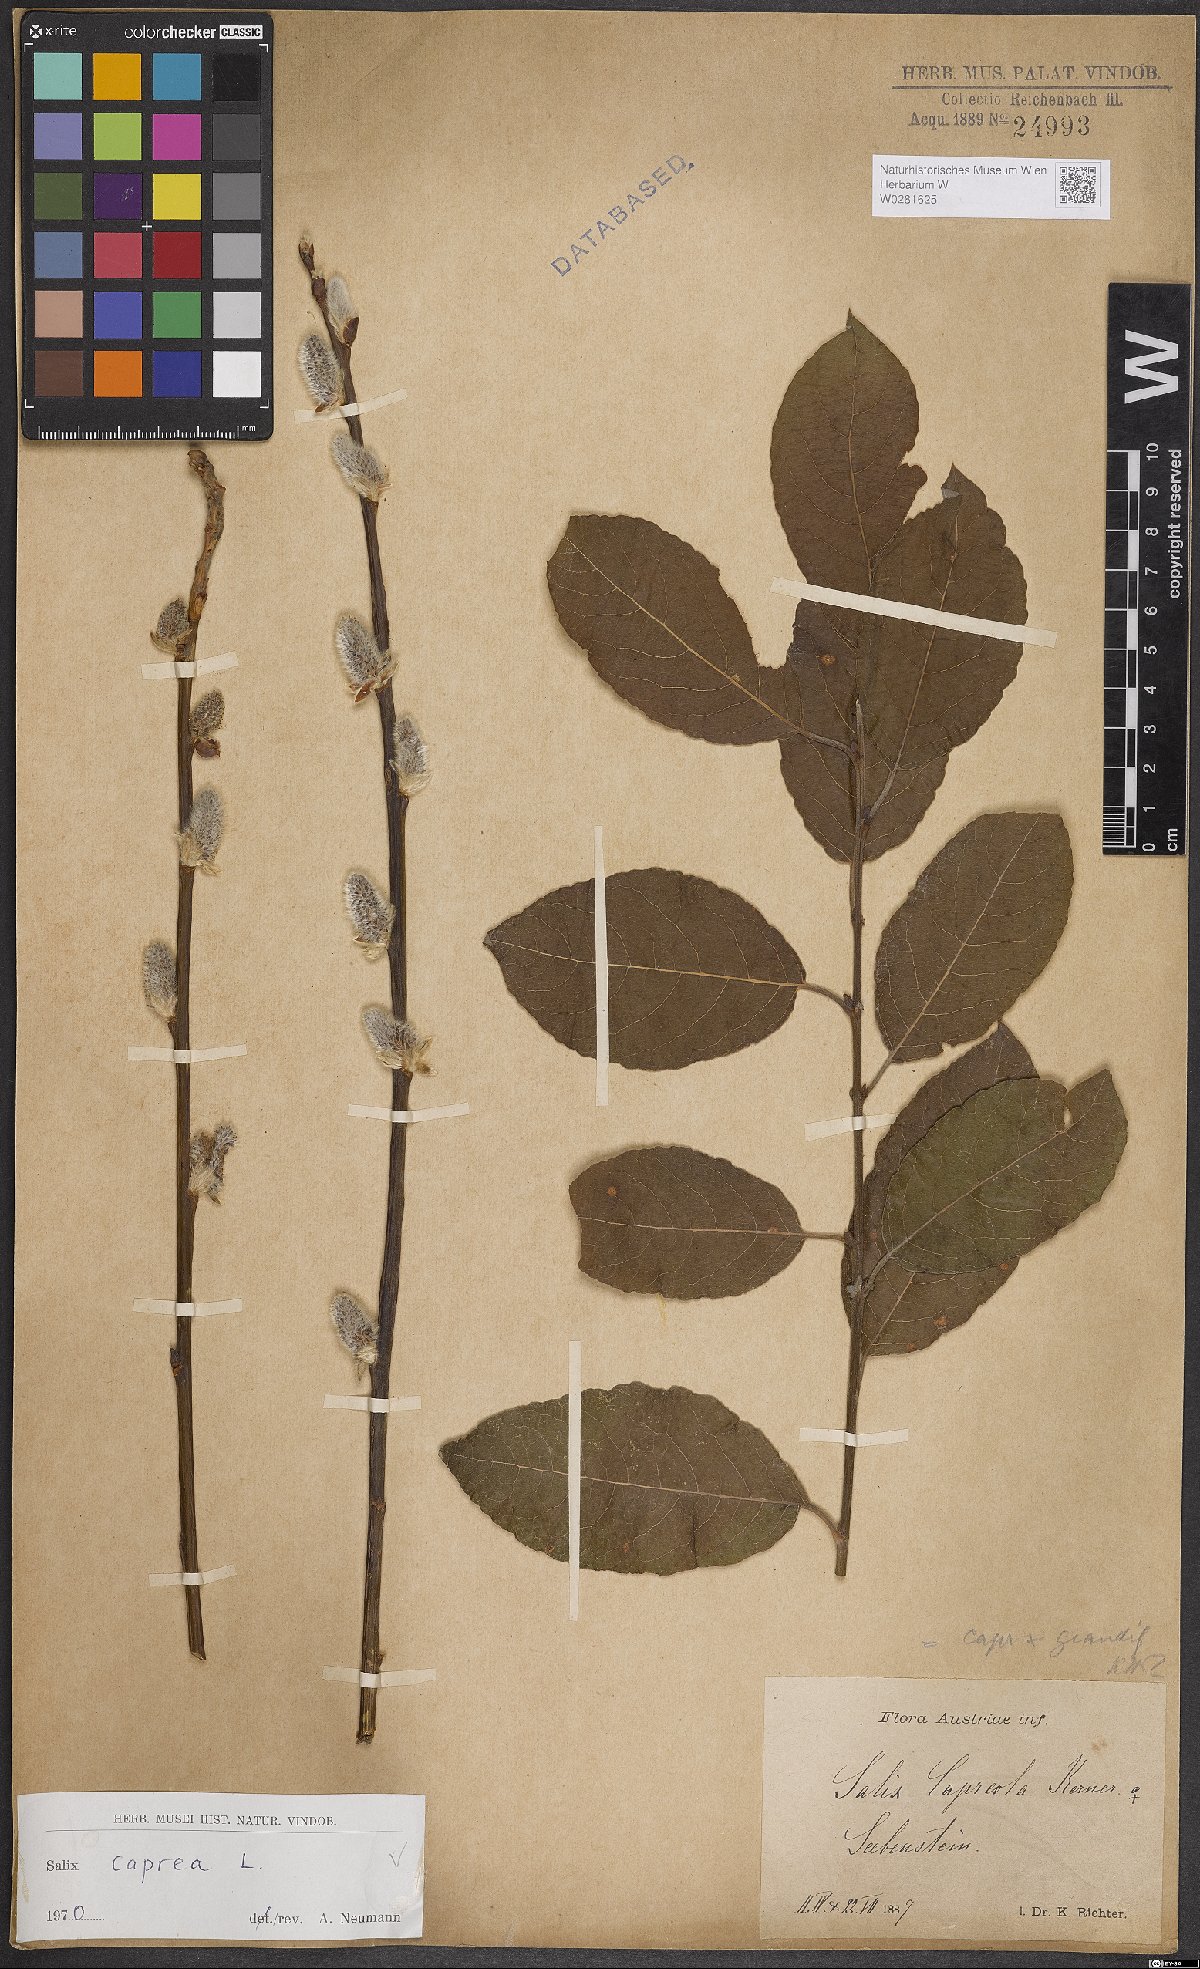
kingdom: Plantae
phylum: Tracheophyta
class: Magnoliopsida
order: Malpighiales
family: Salicaceae
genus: Salix
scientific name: Salix caprea
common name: Goat willow
